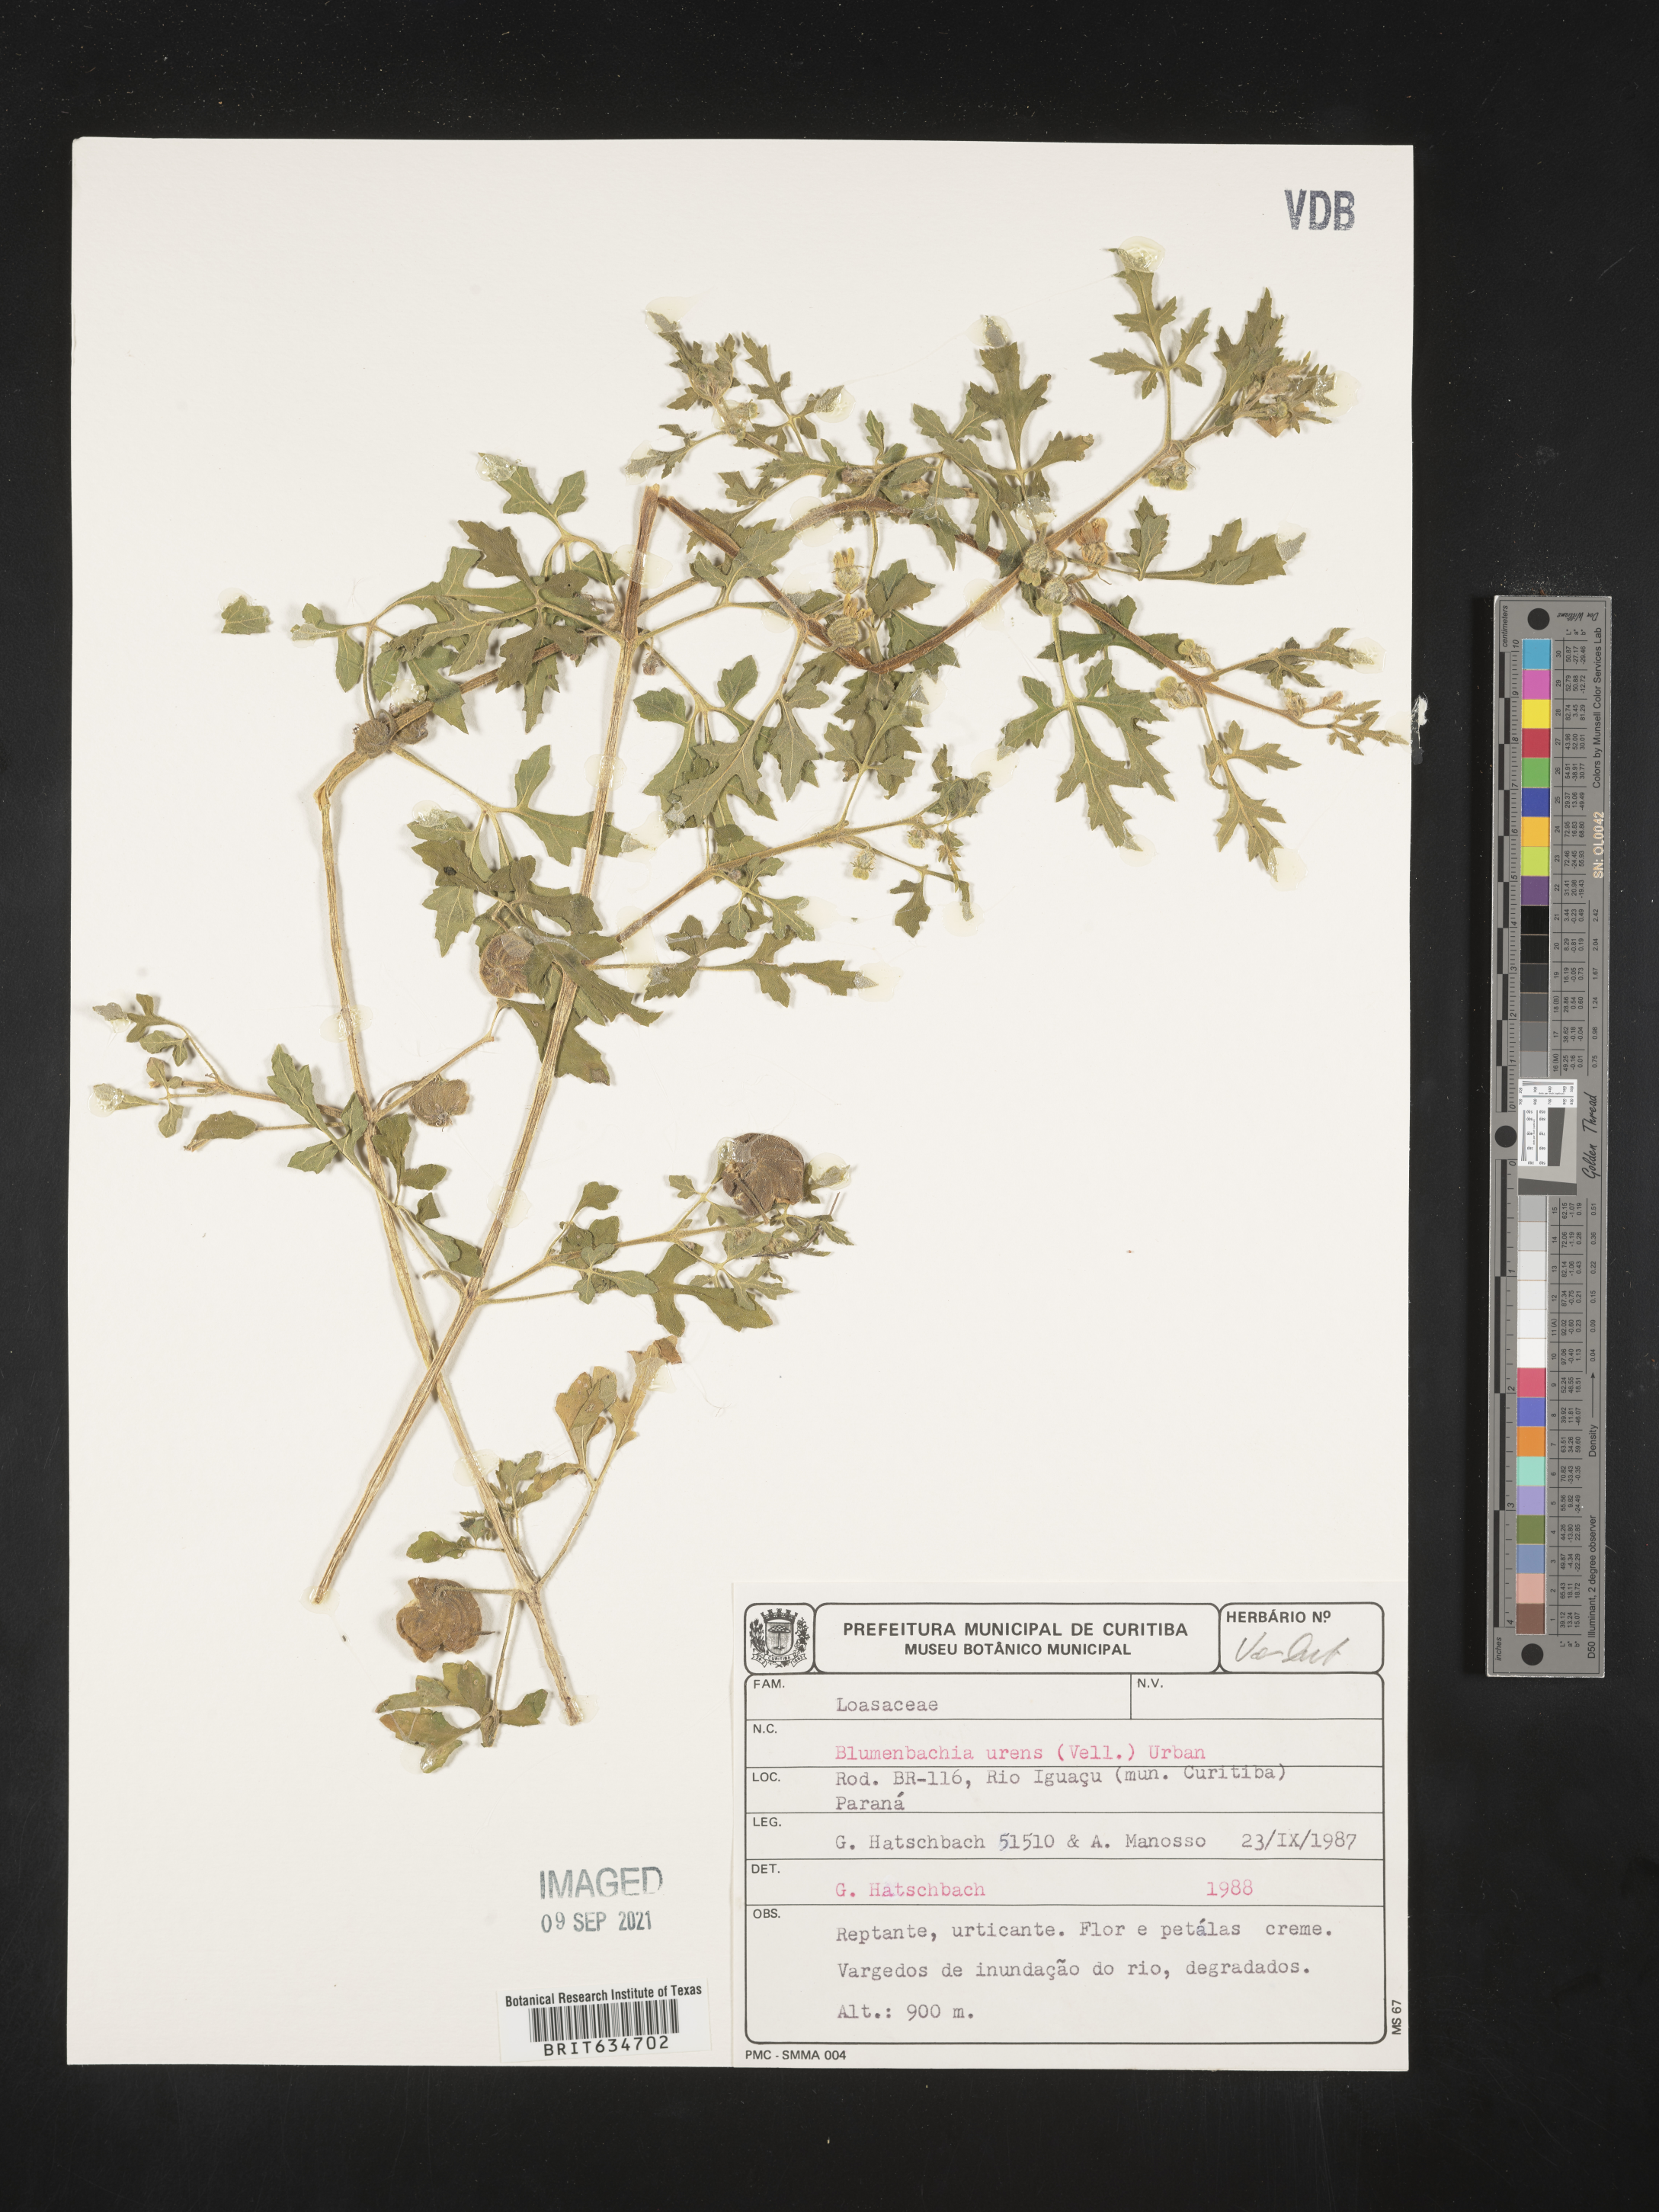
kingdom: Plantae
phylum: Tracheophyta
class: Magnoliopsida
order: Cornales
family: Loasaceae
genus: Blumenbachia
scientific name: Blumenbachia
